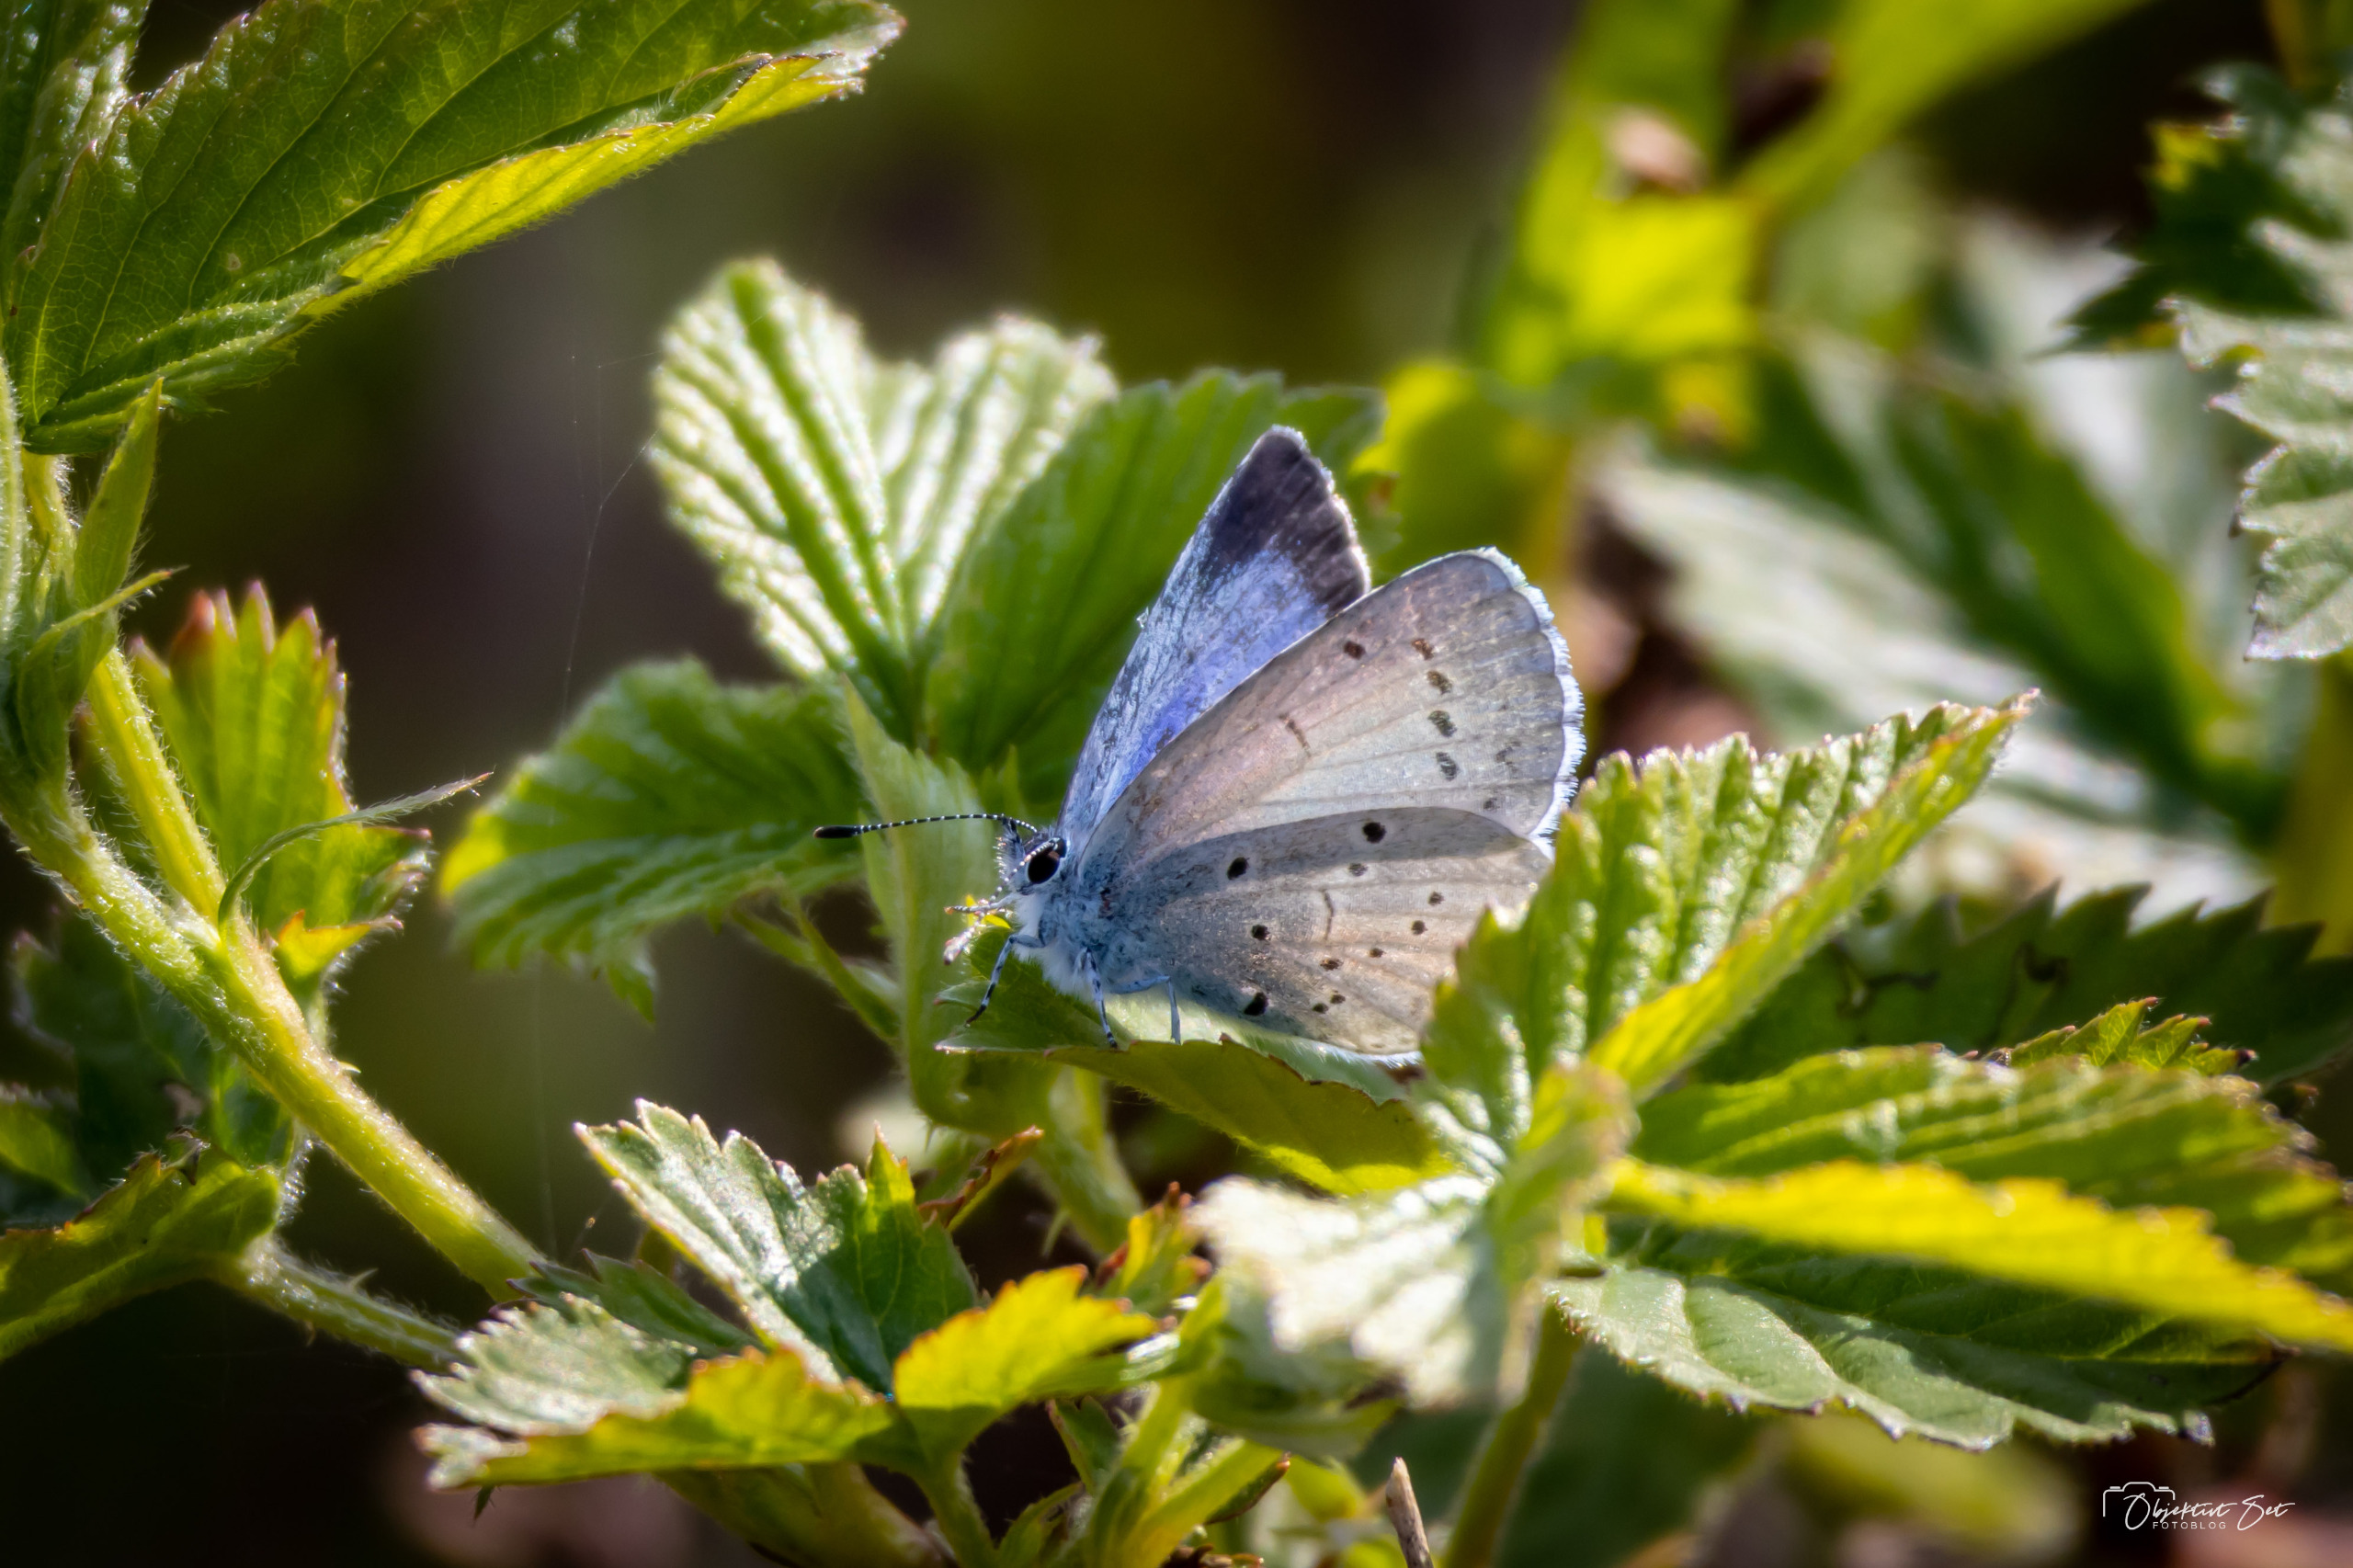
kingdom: Animalia
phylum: Arthropoda
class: Insecta
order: Lepidoptera
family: Lycaenidae
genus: Celastrina
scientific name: Celastrina argiolus
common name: Skovblåfugl
